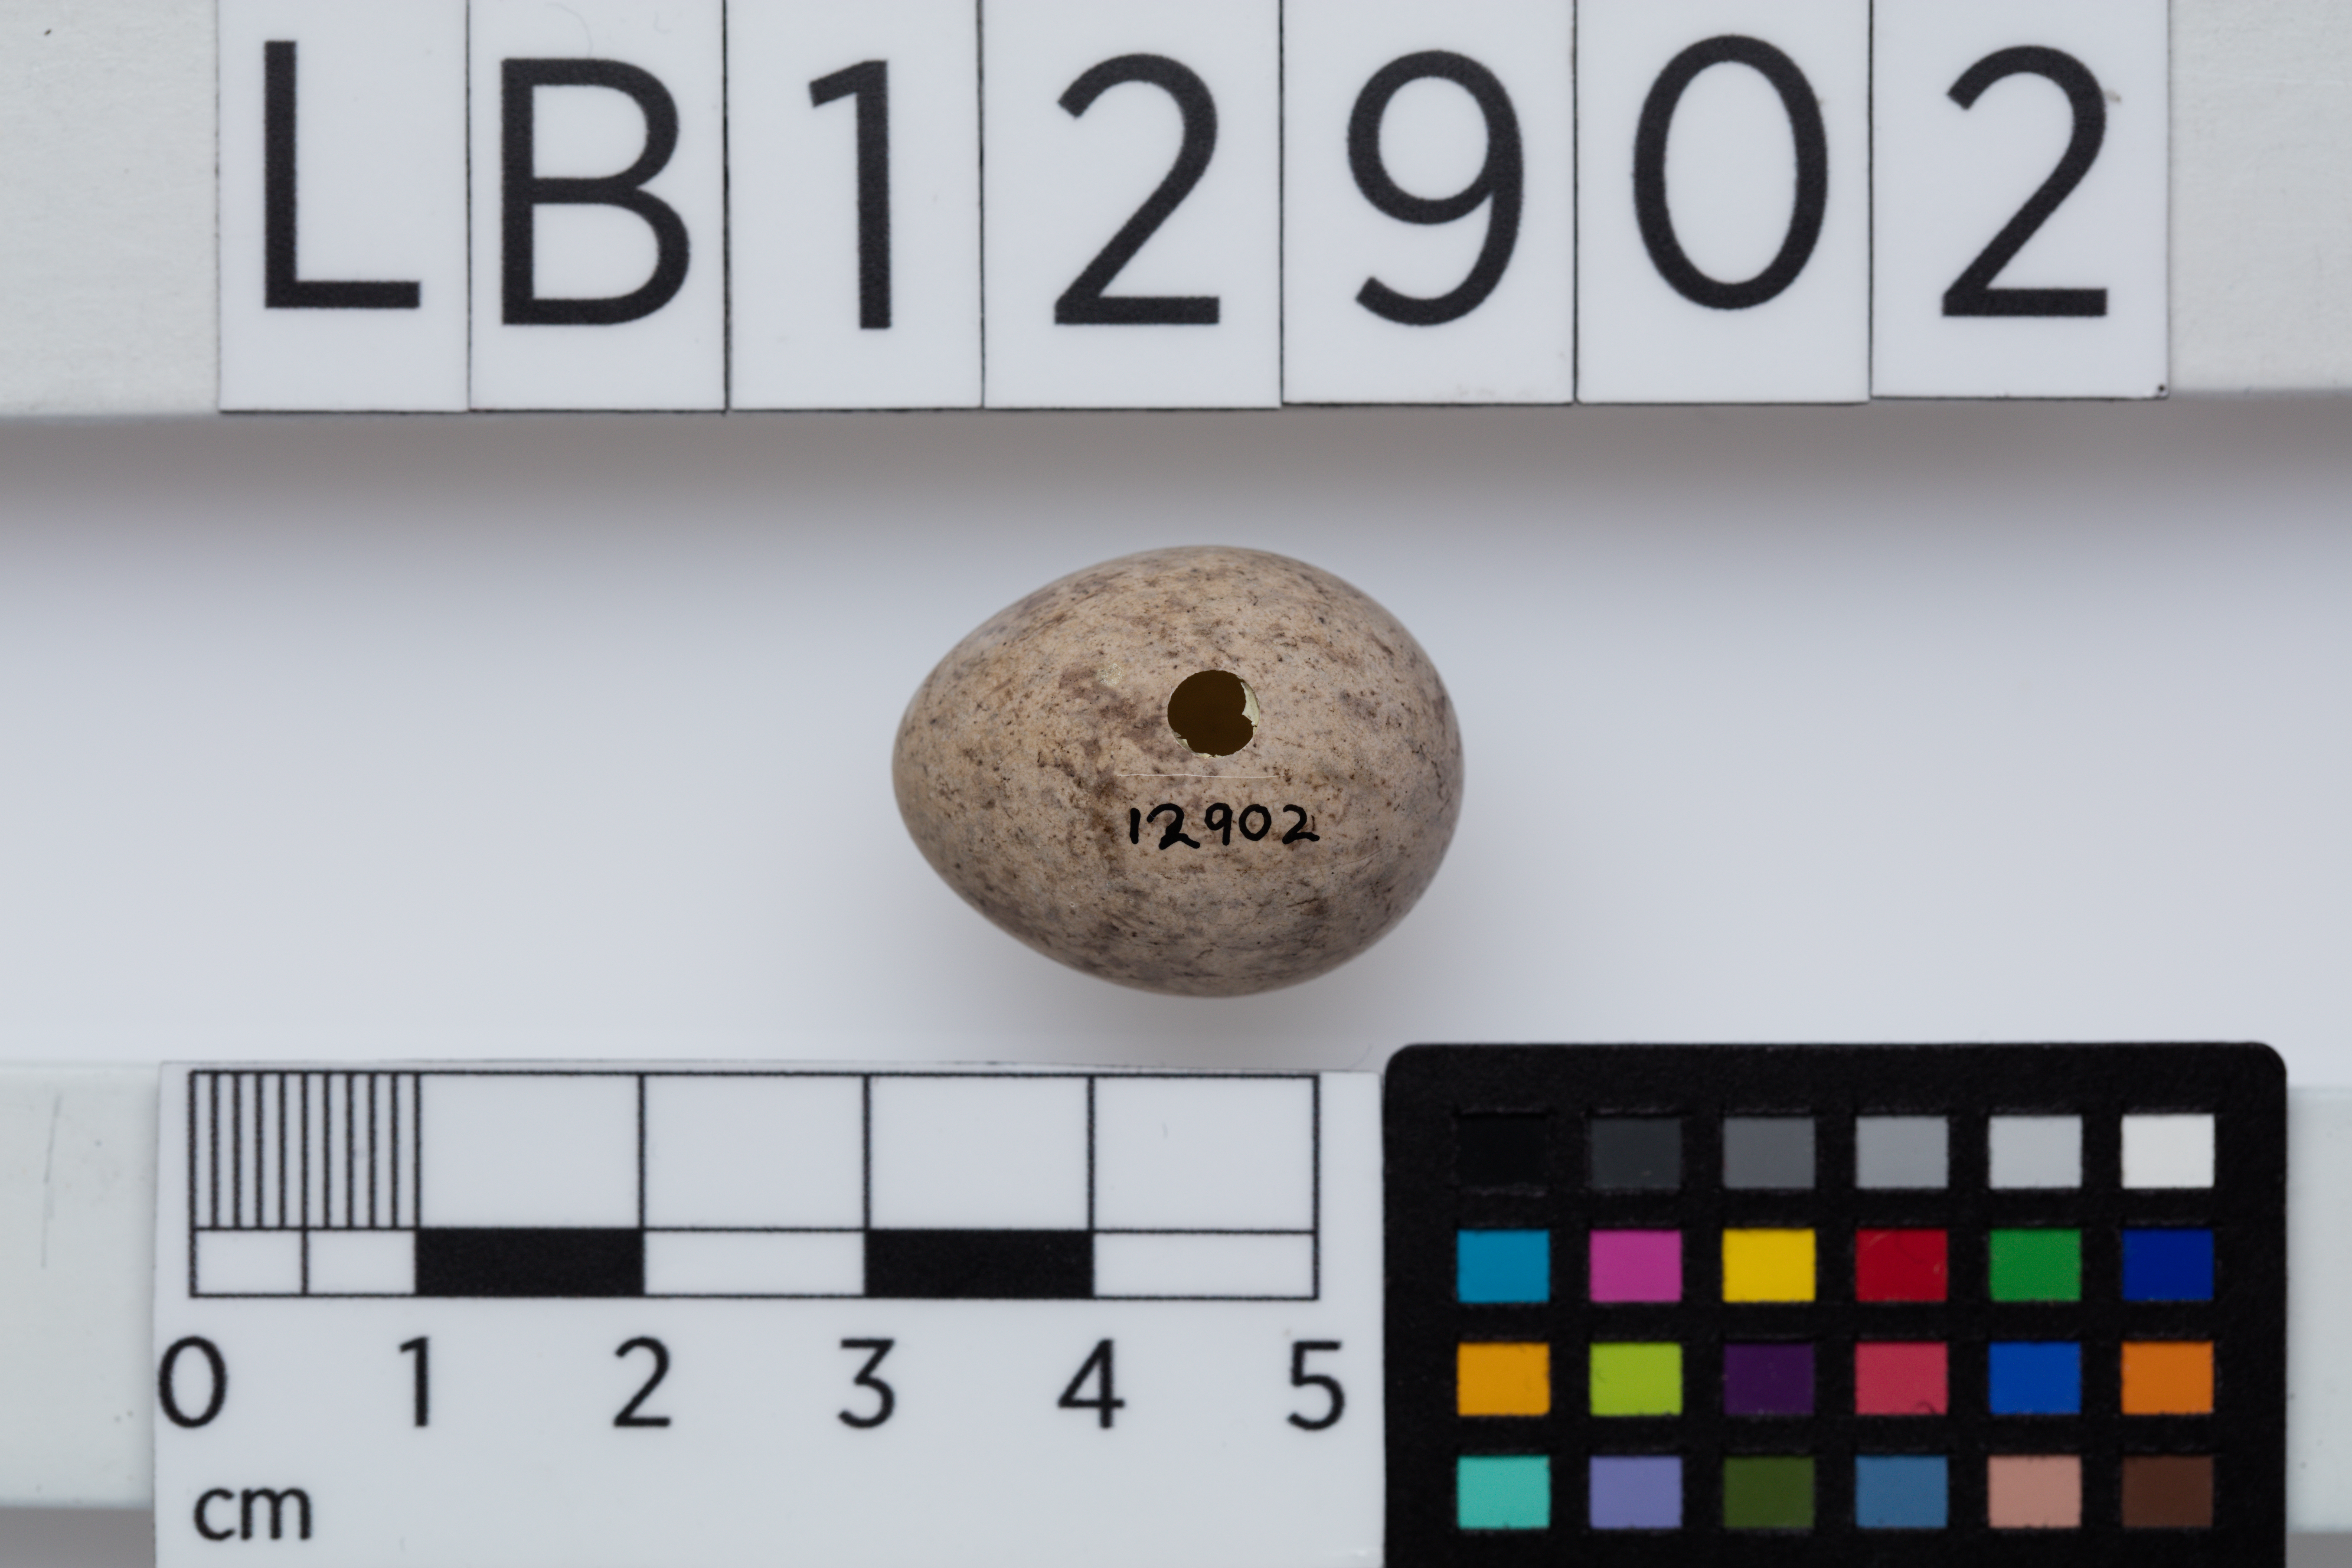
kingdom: Animalia
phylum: Chordata
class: Aves
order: Passeriformes
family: Callaeatidae
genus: Philesturnus
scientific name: Philesturnus carunculatus
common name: South island saddleback
